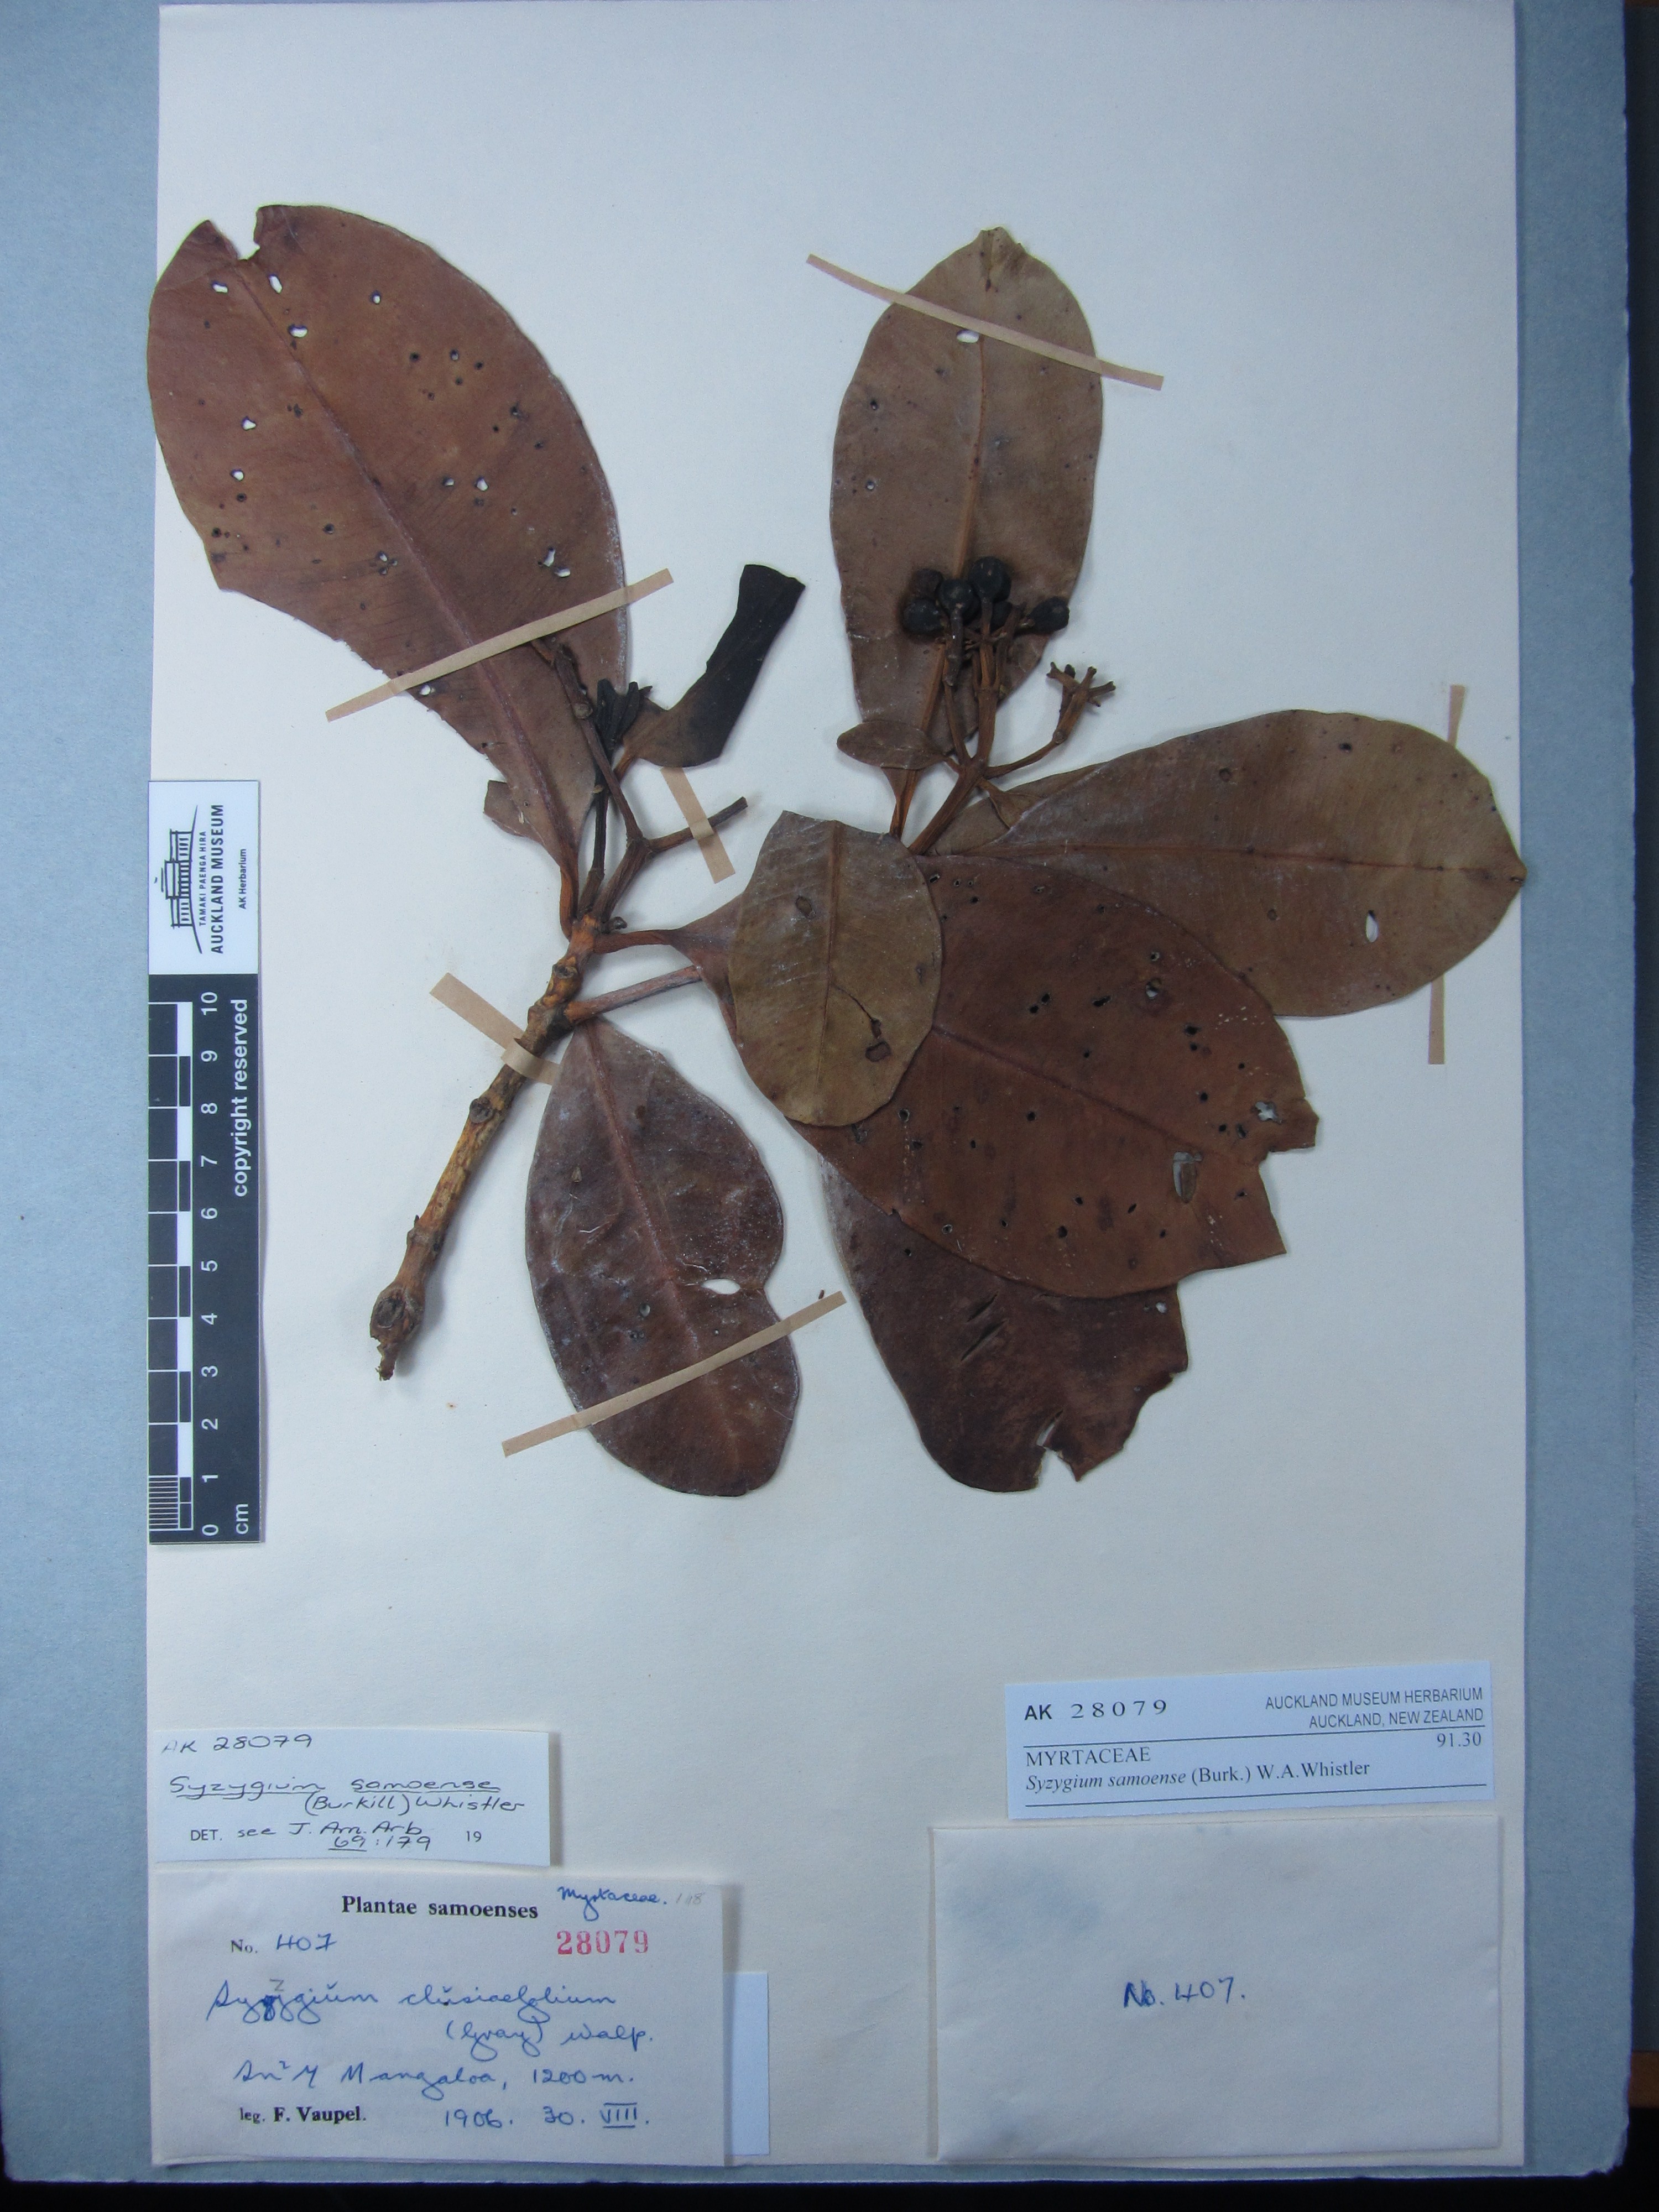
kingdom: Plantae
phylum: Tracheophyta
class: Magnoliopsida
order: Myrtales
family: Myrtaceae
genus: Syzygium
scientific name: Syzygium samoense
